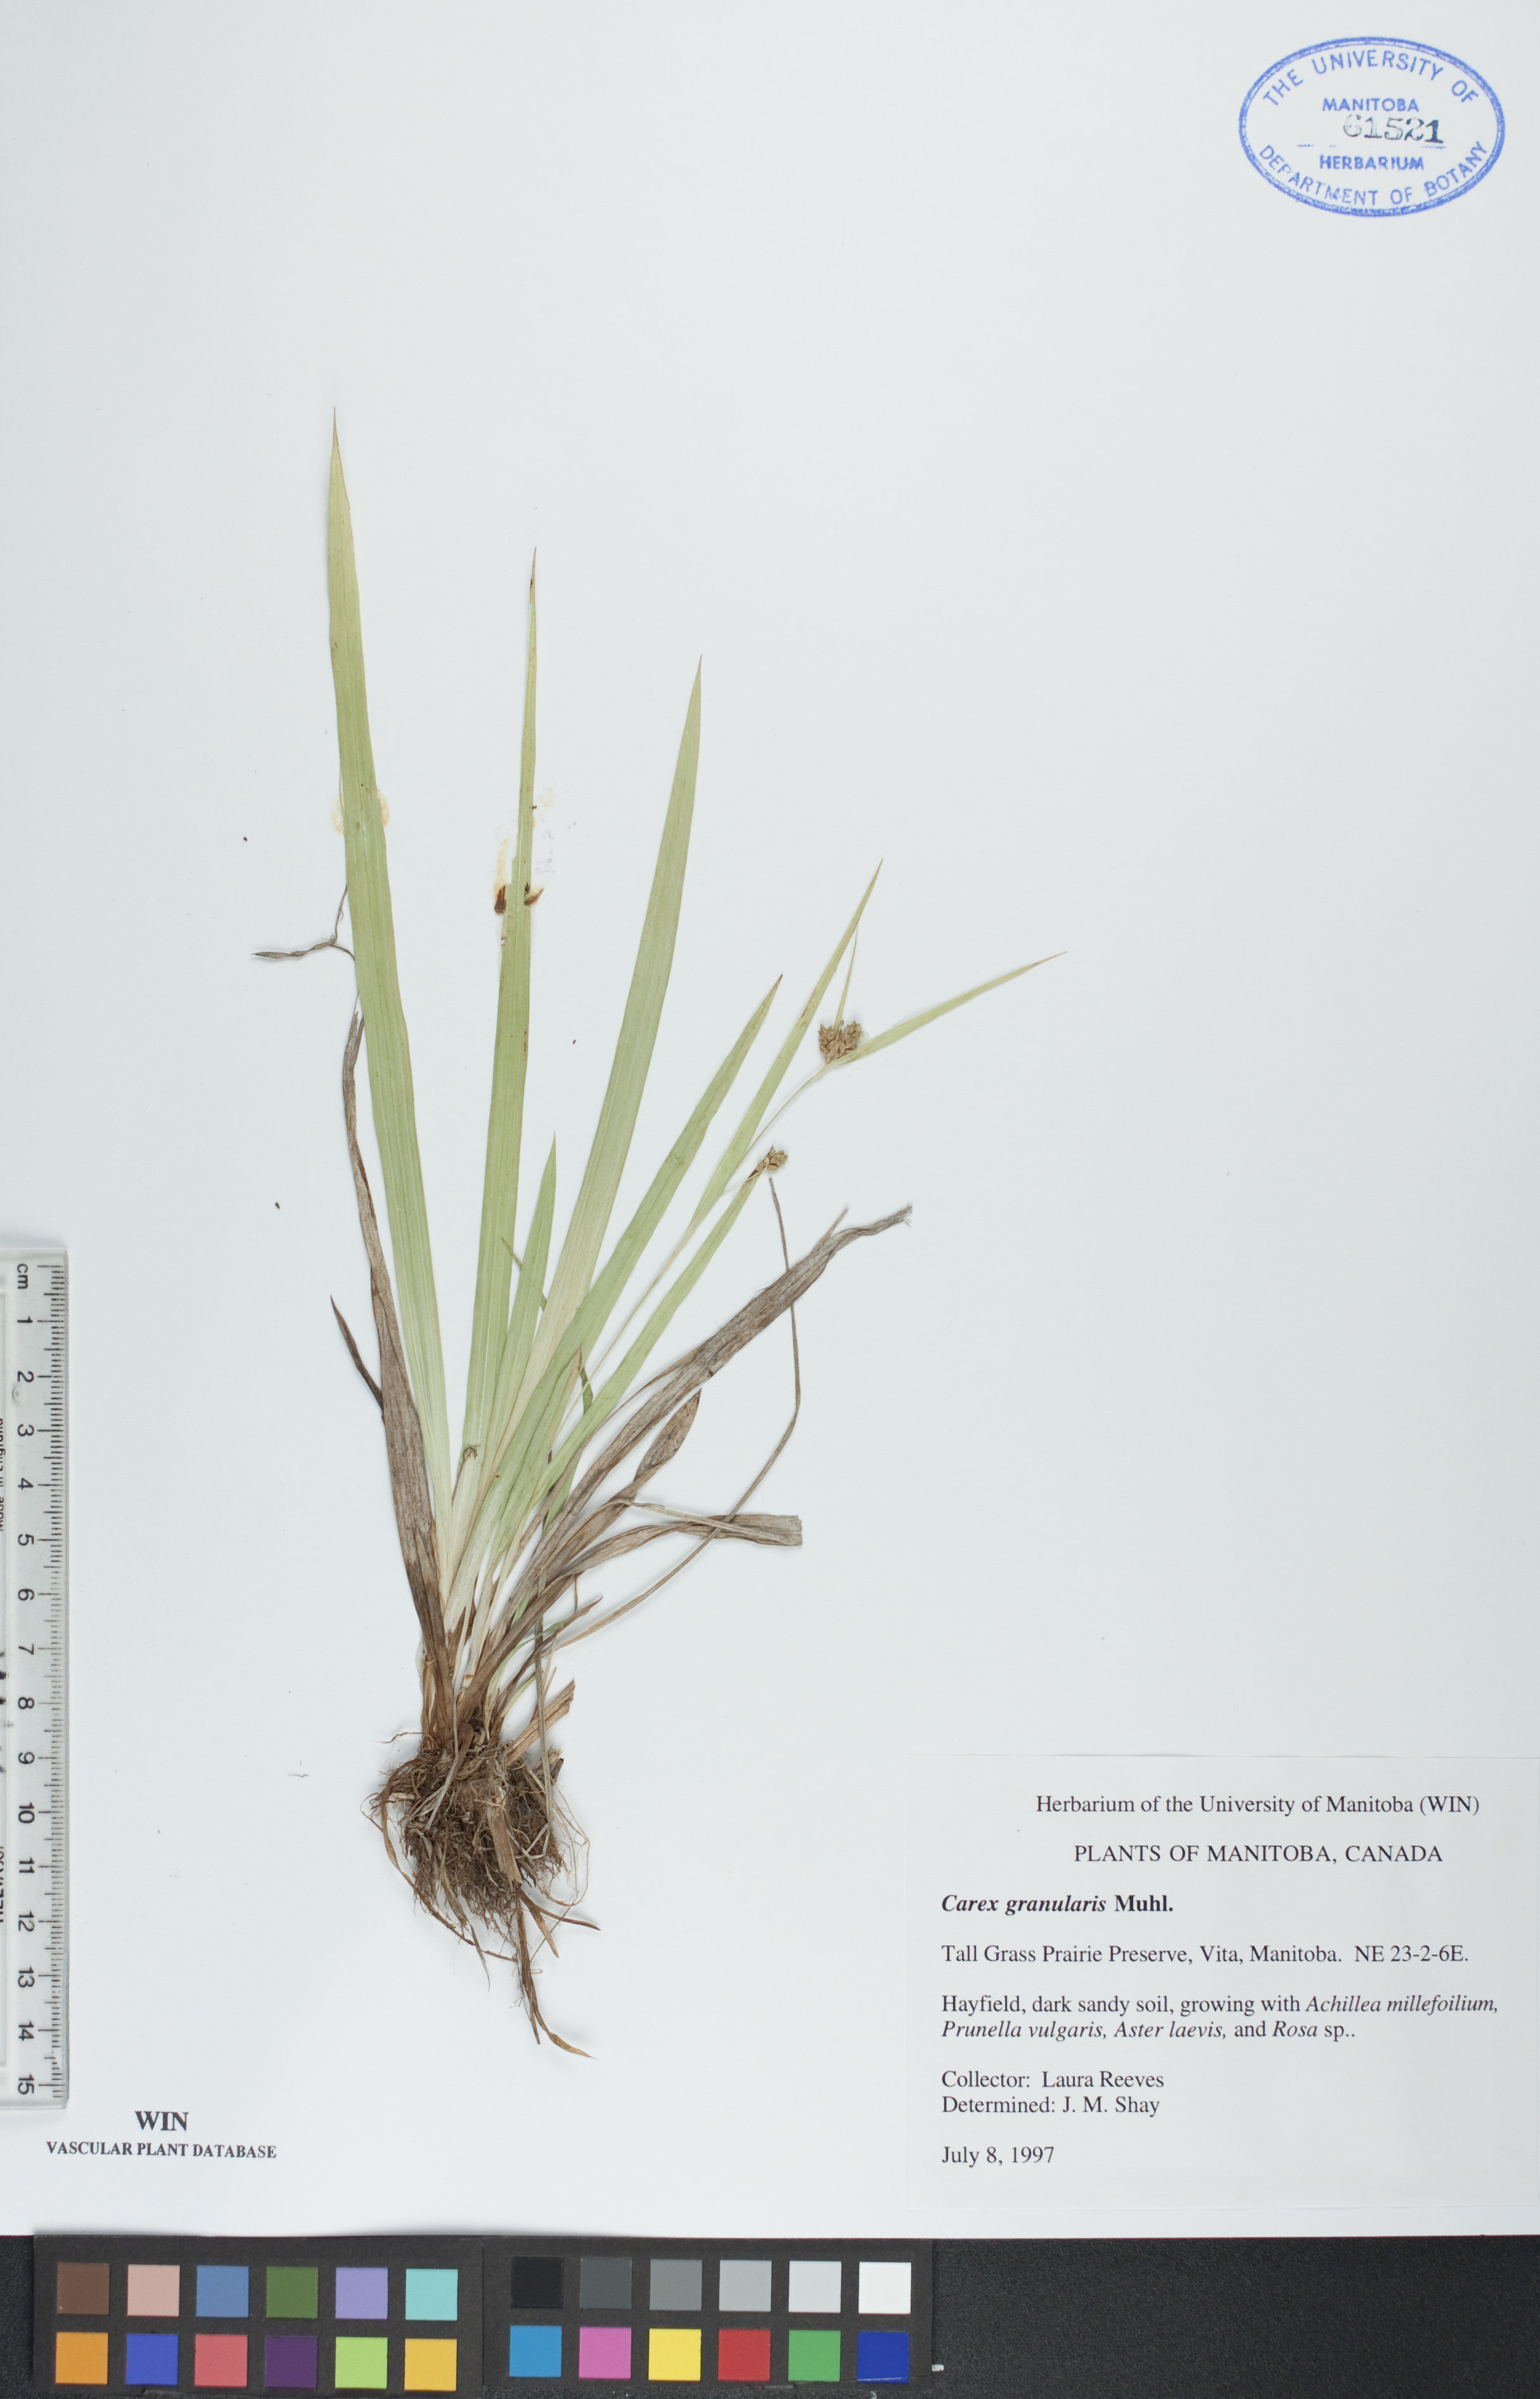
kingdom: Plantae
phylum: Tracheophyta
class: Liliopsida
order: Poales
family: Cyperaceae
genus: Carex
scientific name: Carex granularis
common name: Granular sedge
